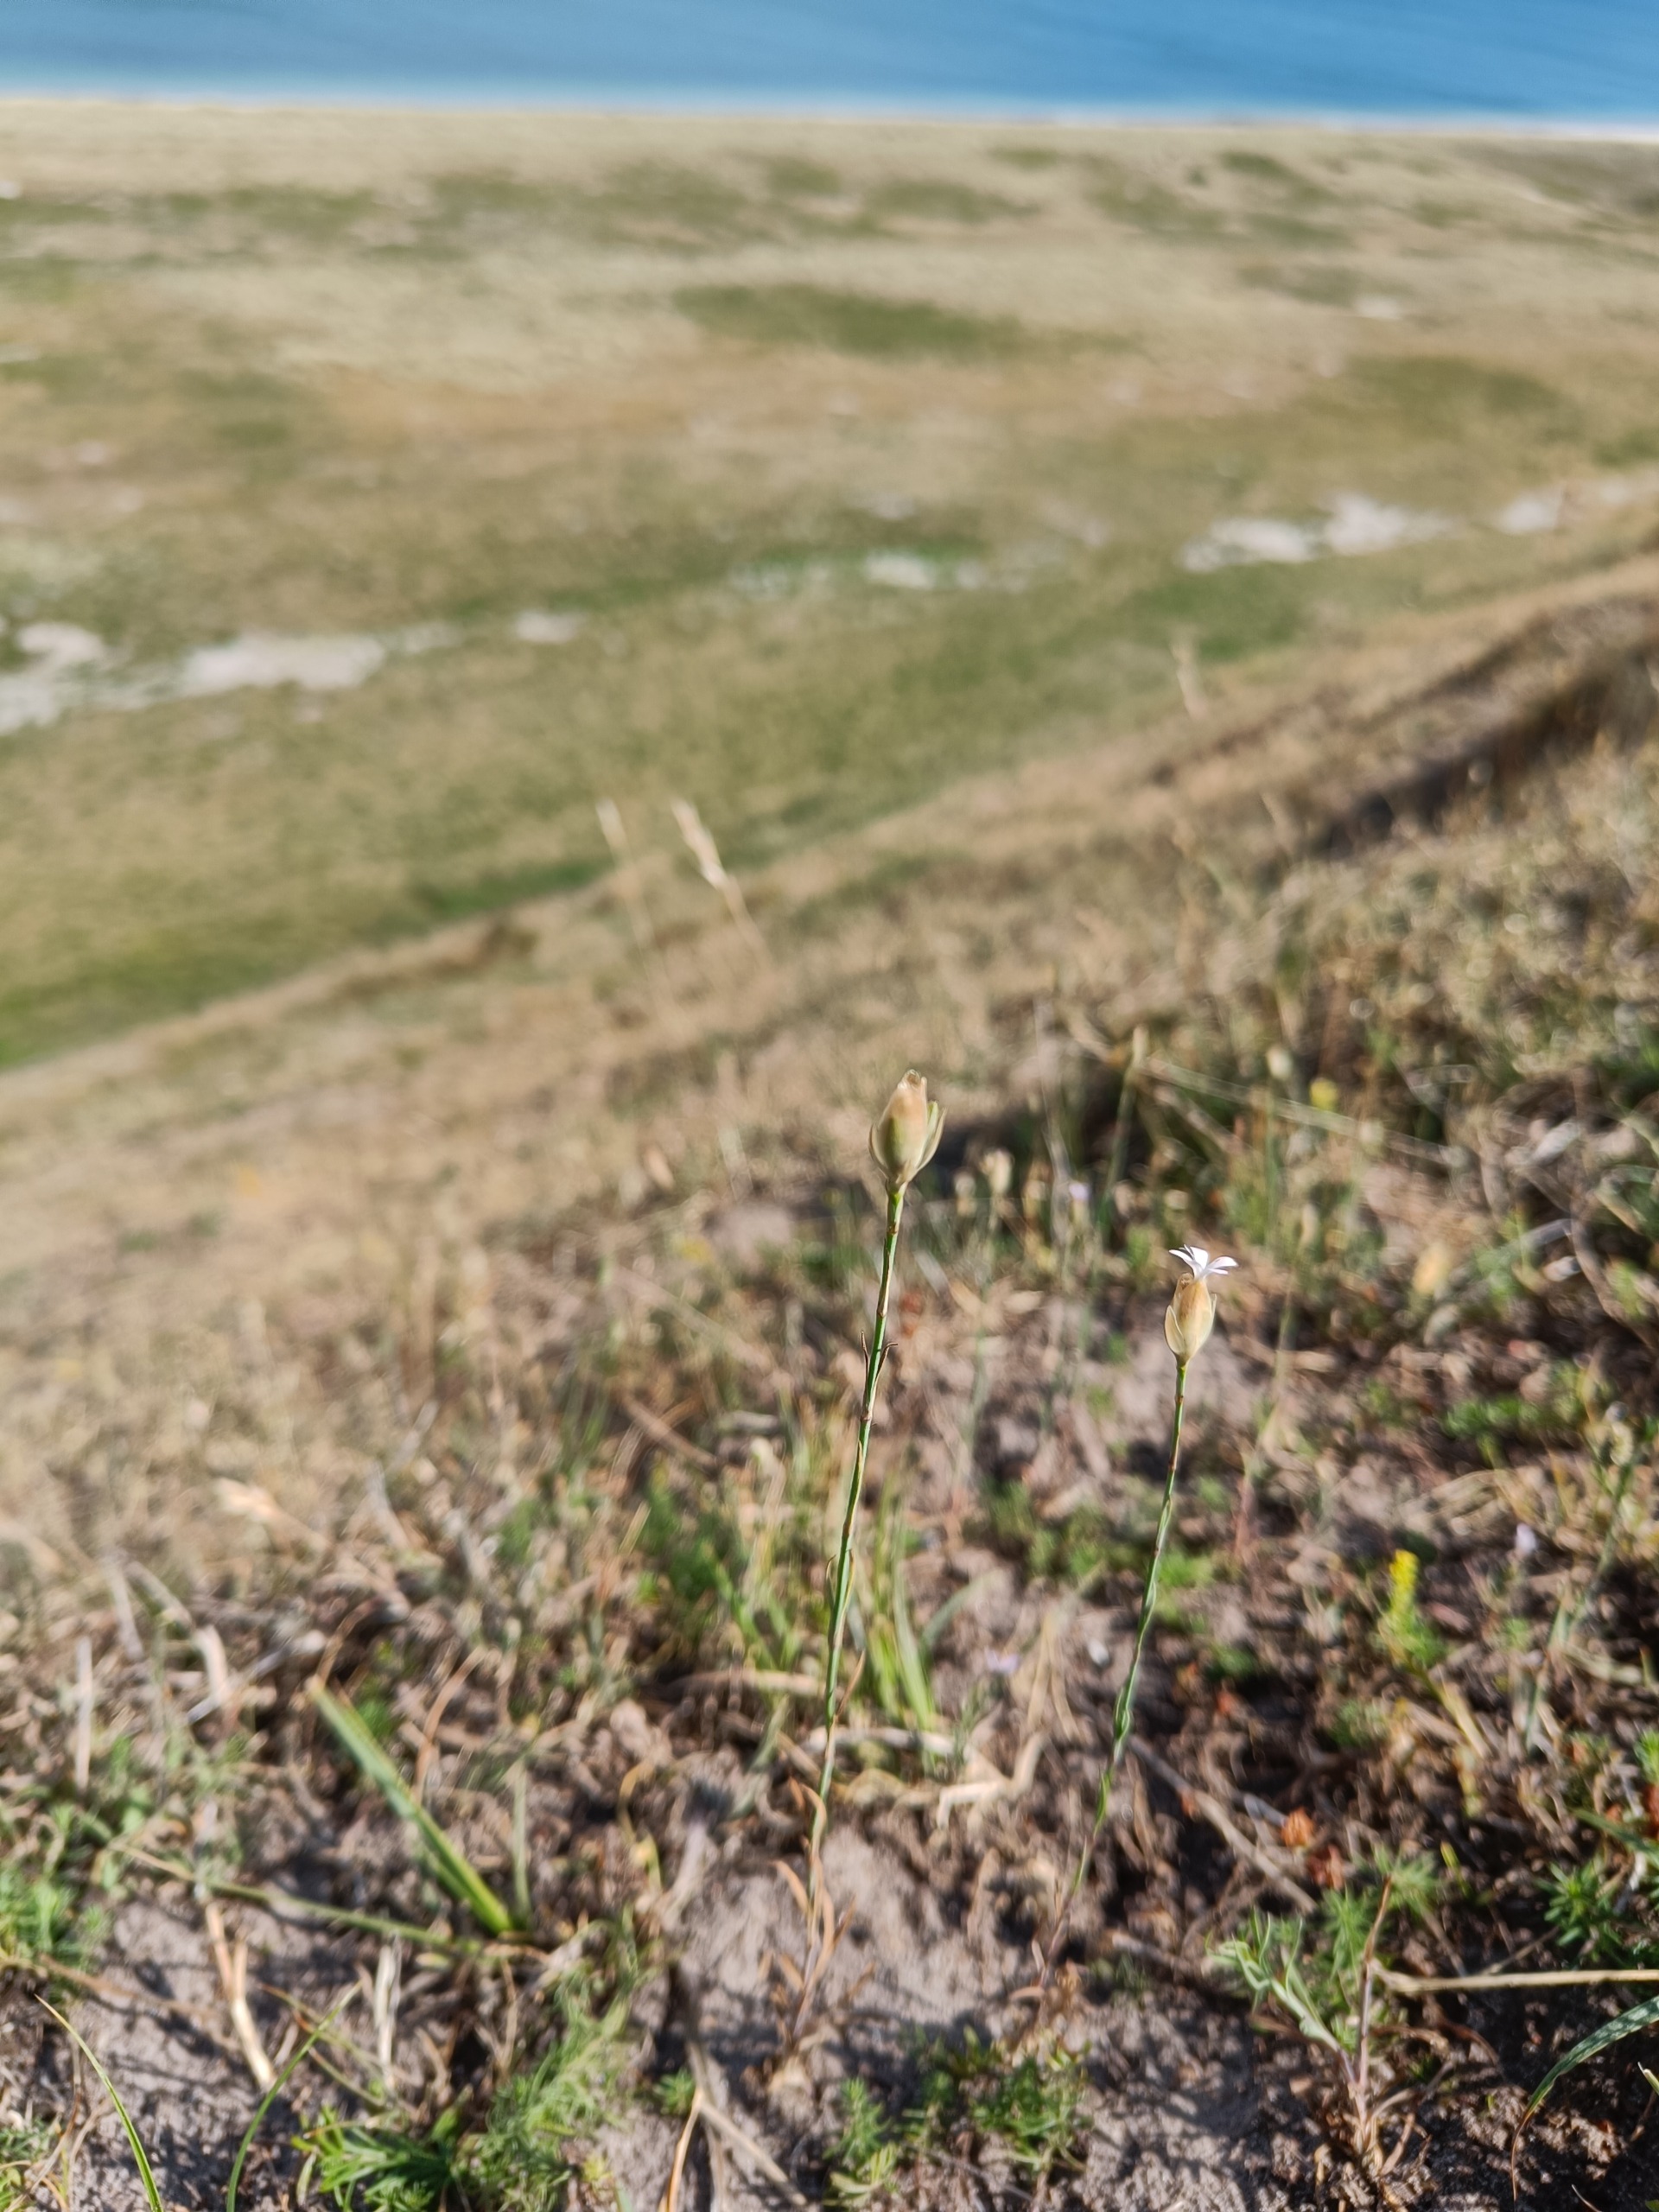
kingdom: Plantae
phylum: Tracheophyta
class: Magnoliopsida
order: Caryophyllales
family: Caryophyllaceae
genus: Petrorhagia
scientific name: Petrorhagia prolifera
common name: Knopnellike
